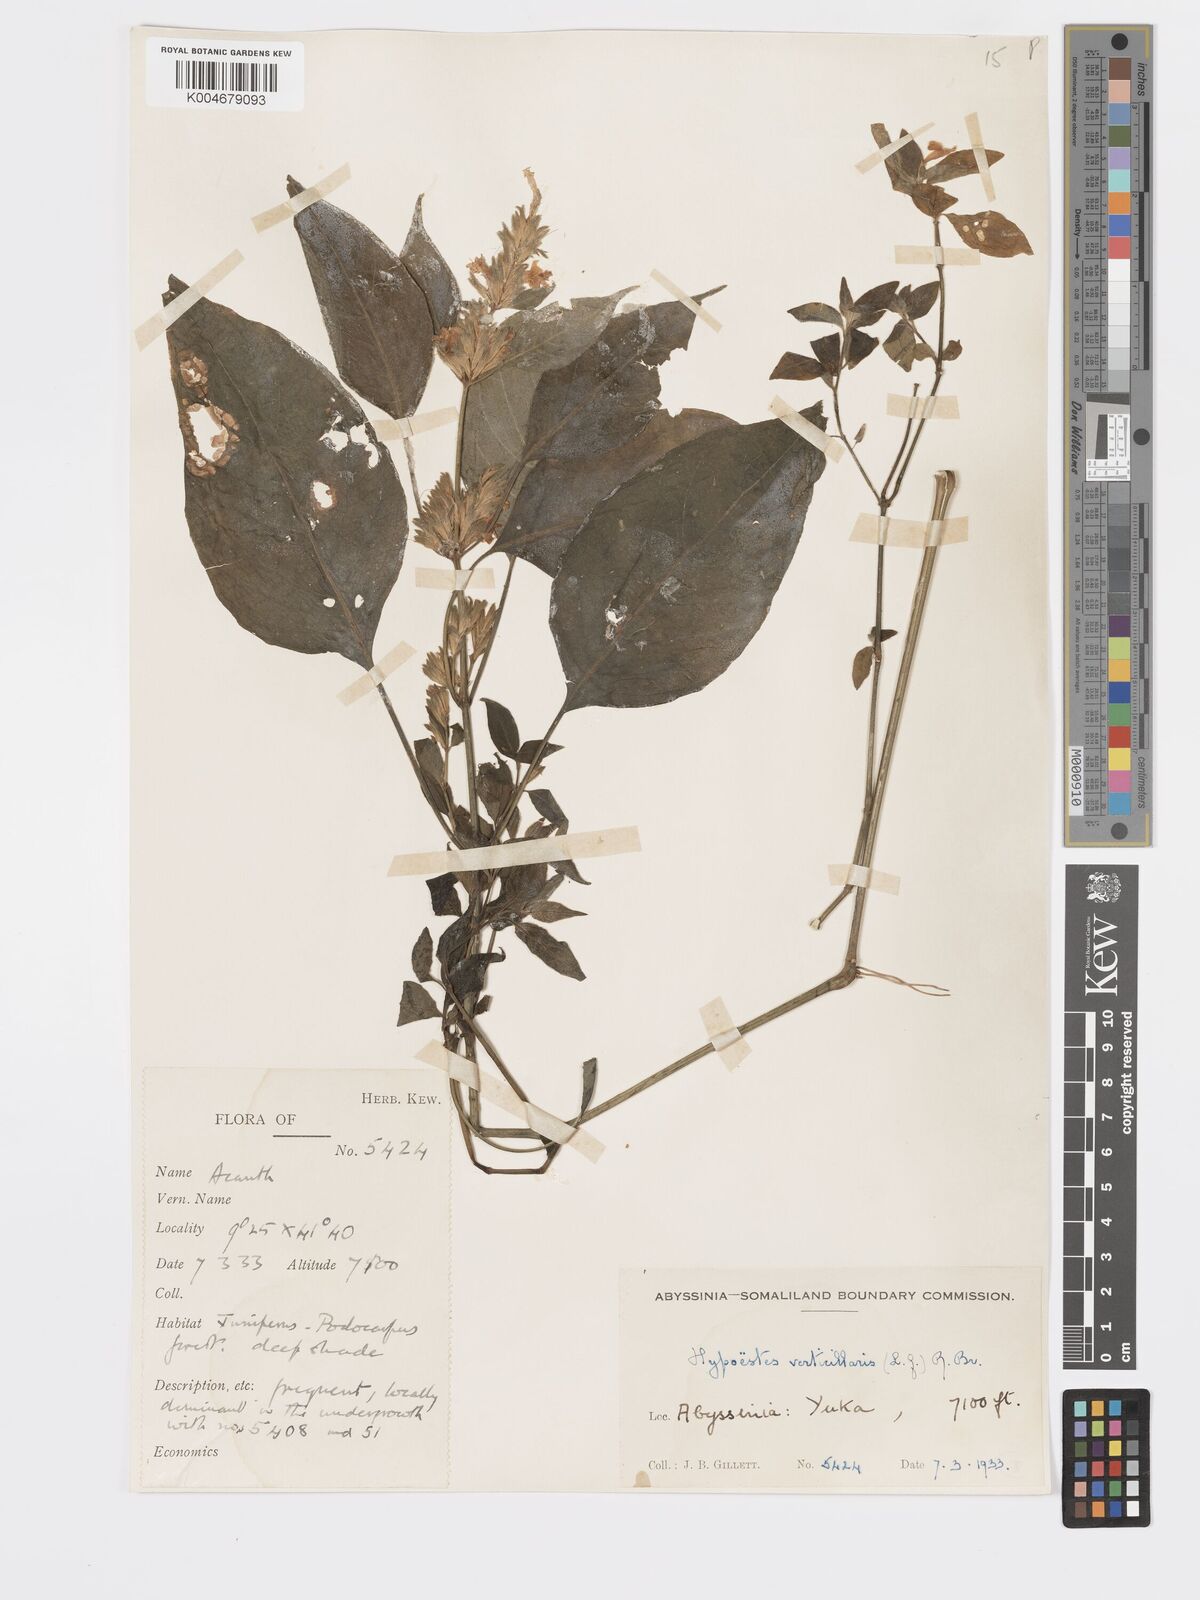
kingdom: Plantae
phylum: Tracheophyta
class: Magnoliopsida
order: Lamiales
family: Acanthaceae
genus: Hypoestes
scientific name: Hypoestes forskaolii
